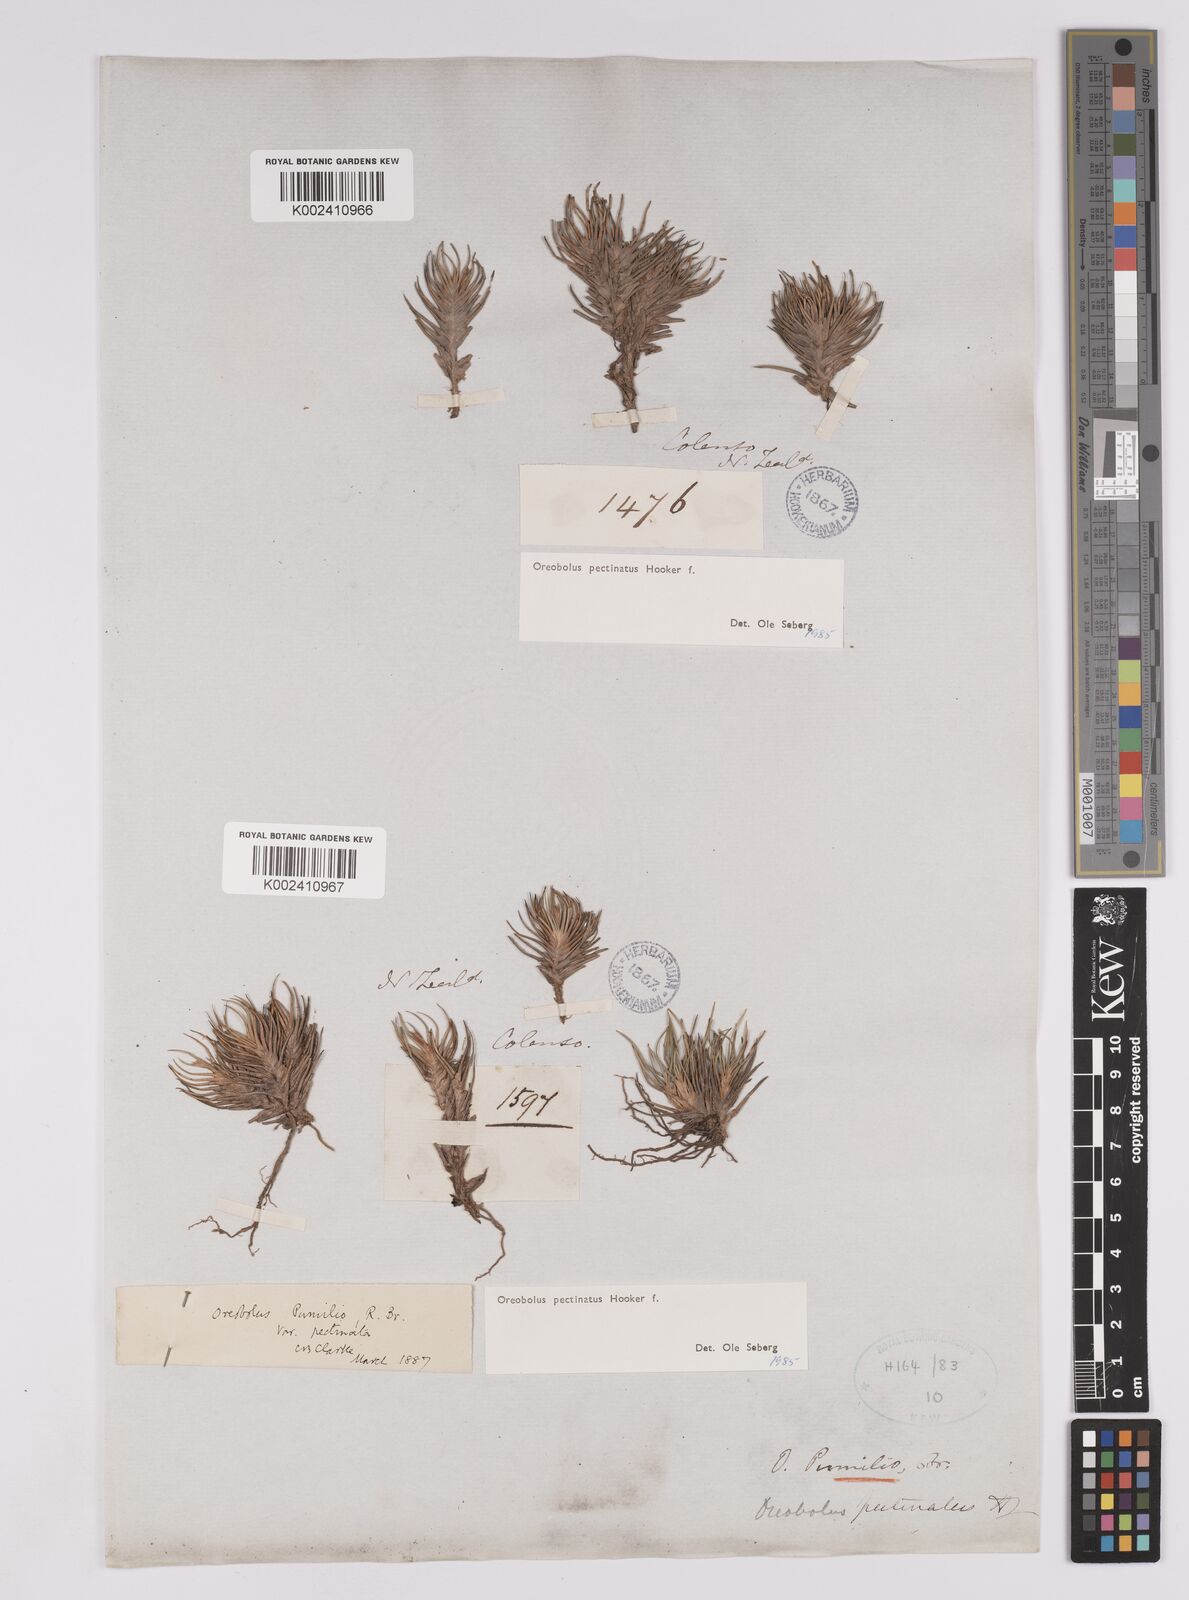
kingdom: Plantae
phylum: Tracheophyta
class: Liliopsida
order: Poales
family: Cyperaceae
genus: Oreobolus
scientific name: Oreobolus pectinatus
